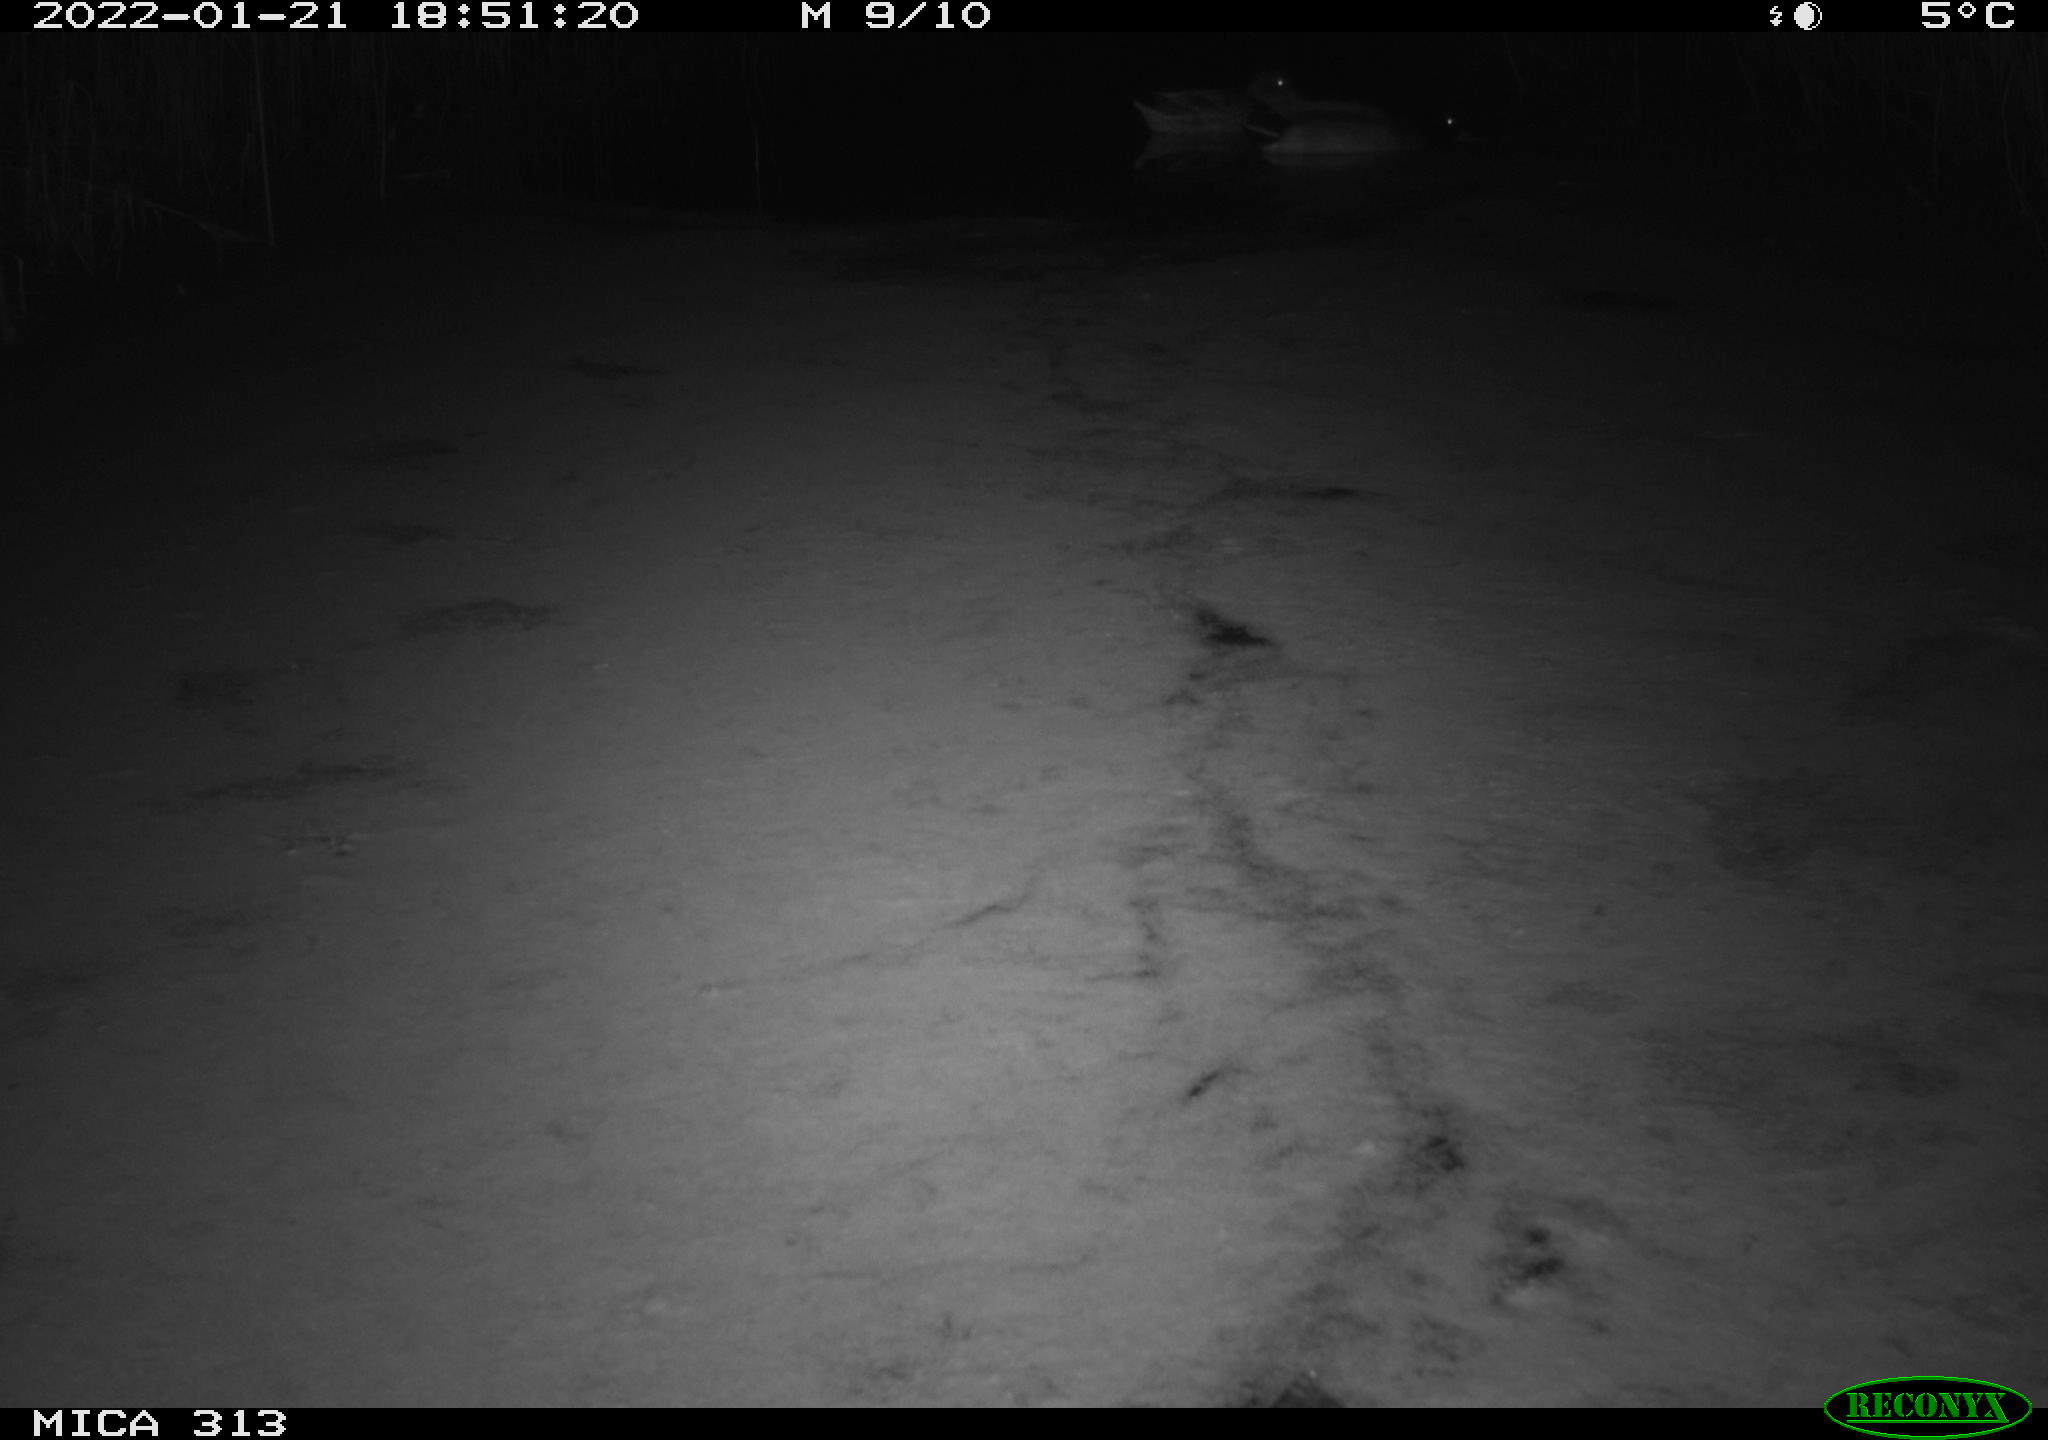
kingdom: Animalia
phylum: Chordata
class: Aves
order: Gruiformes
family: Rallidae
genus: Gallinula
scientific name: Gallinula chloropus
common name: Common moorhen
